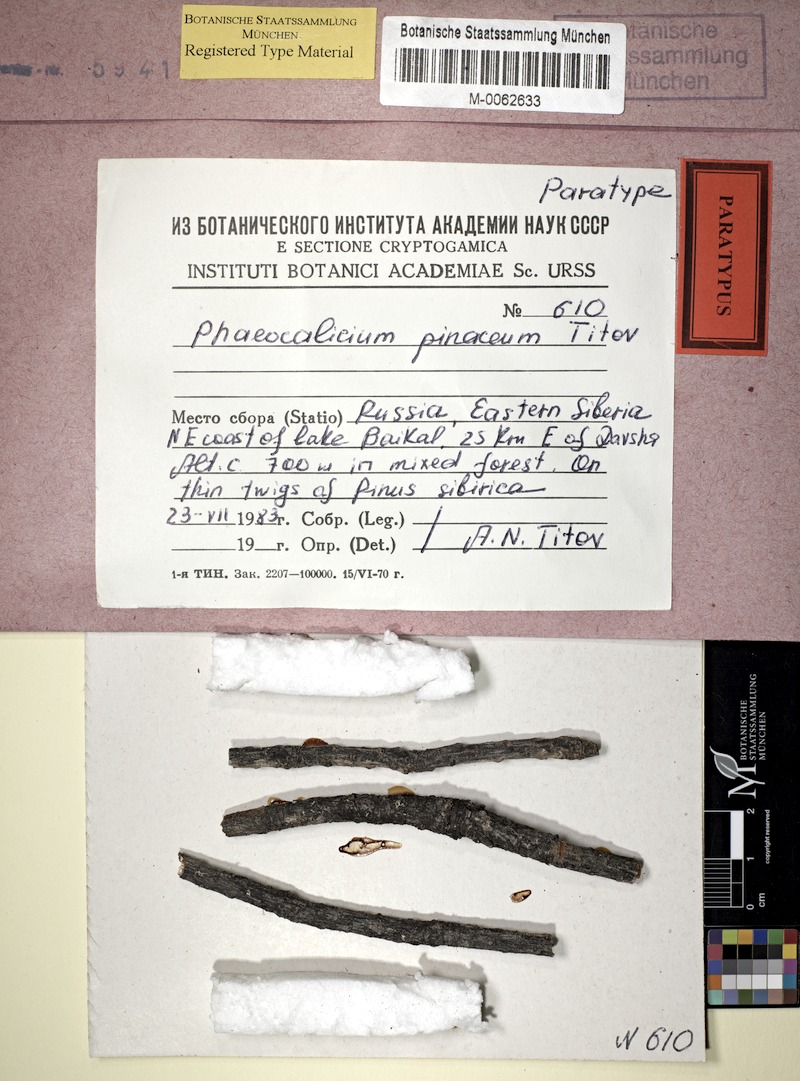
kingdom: Fungi
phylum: Ascomycota
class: Eurotiomycetes
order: Mycocaliciales
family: Mycocaliciaceae
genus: Phaeocalicium
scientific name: Phaeocalicium pinaceum
